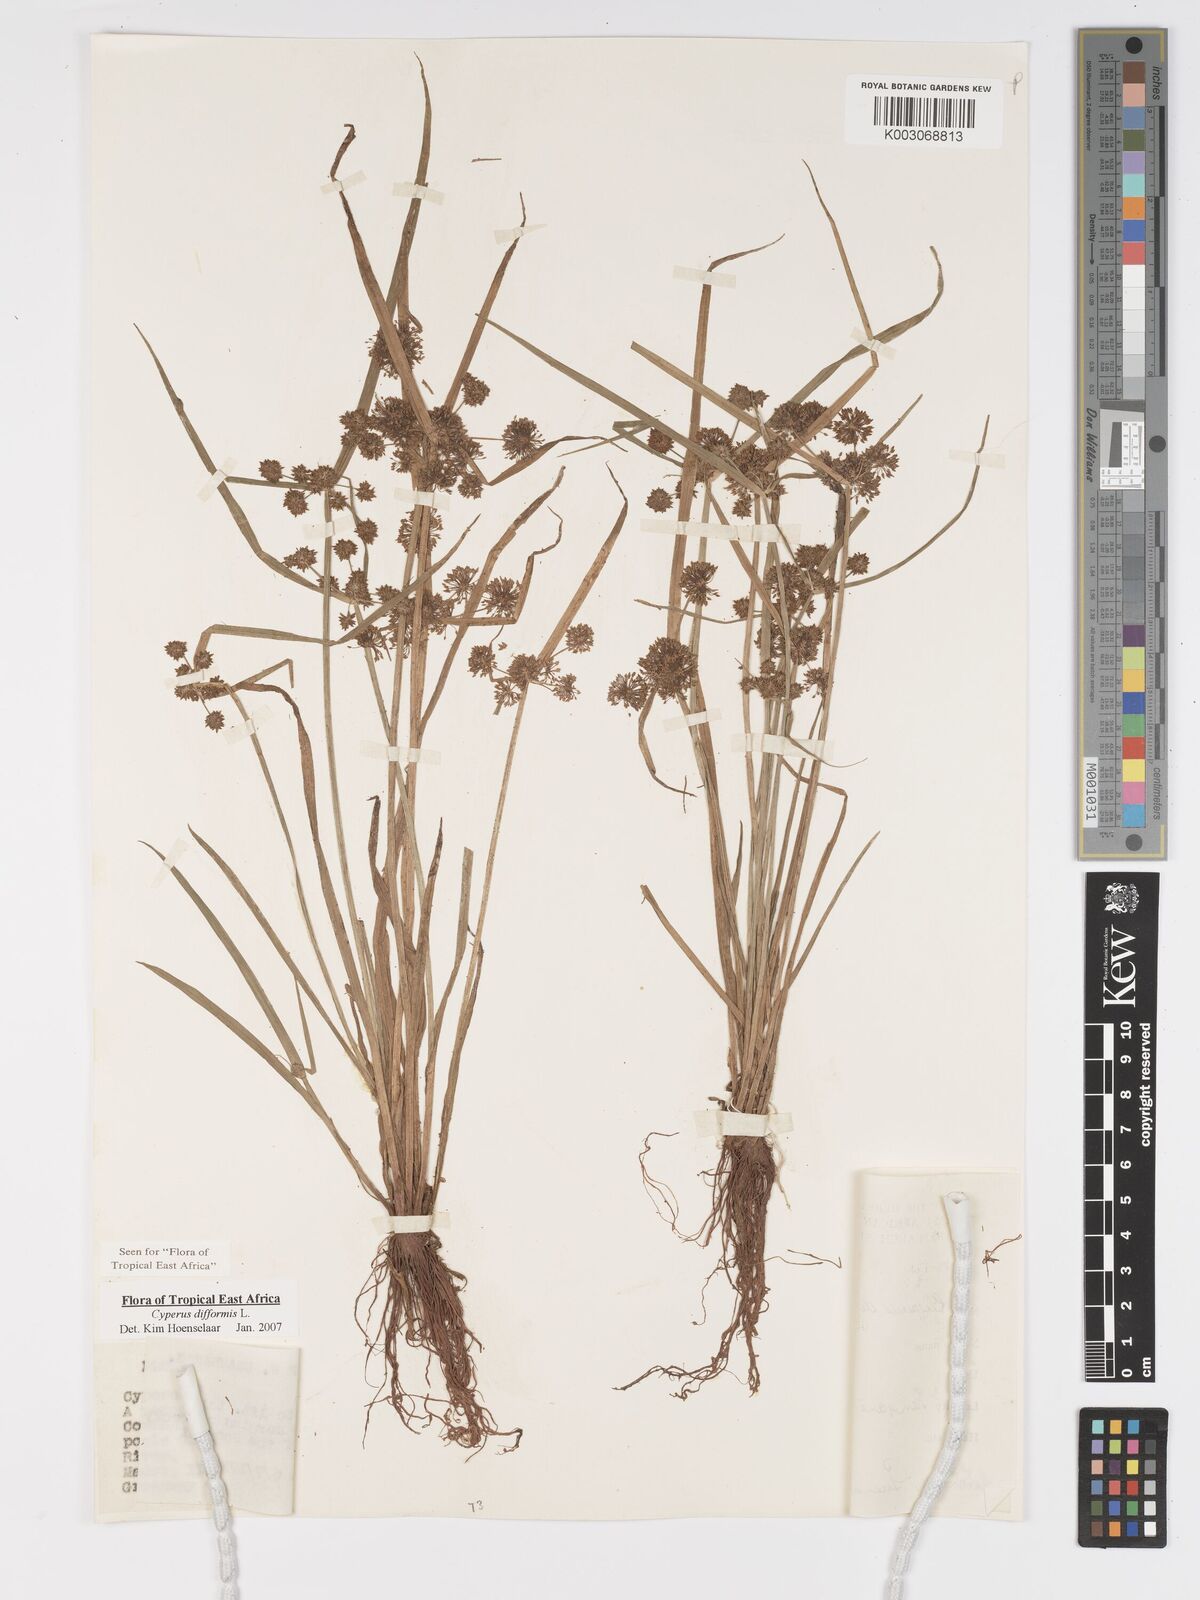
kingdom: Plantae
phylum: Tracheophyta
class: Liliopsida
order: Poales
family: Cyperaceae
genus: Cyperus
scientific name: Cyperus difformis
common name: Variable flatsedge
